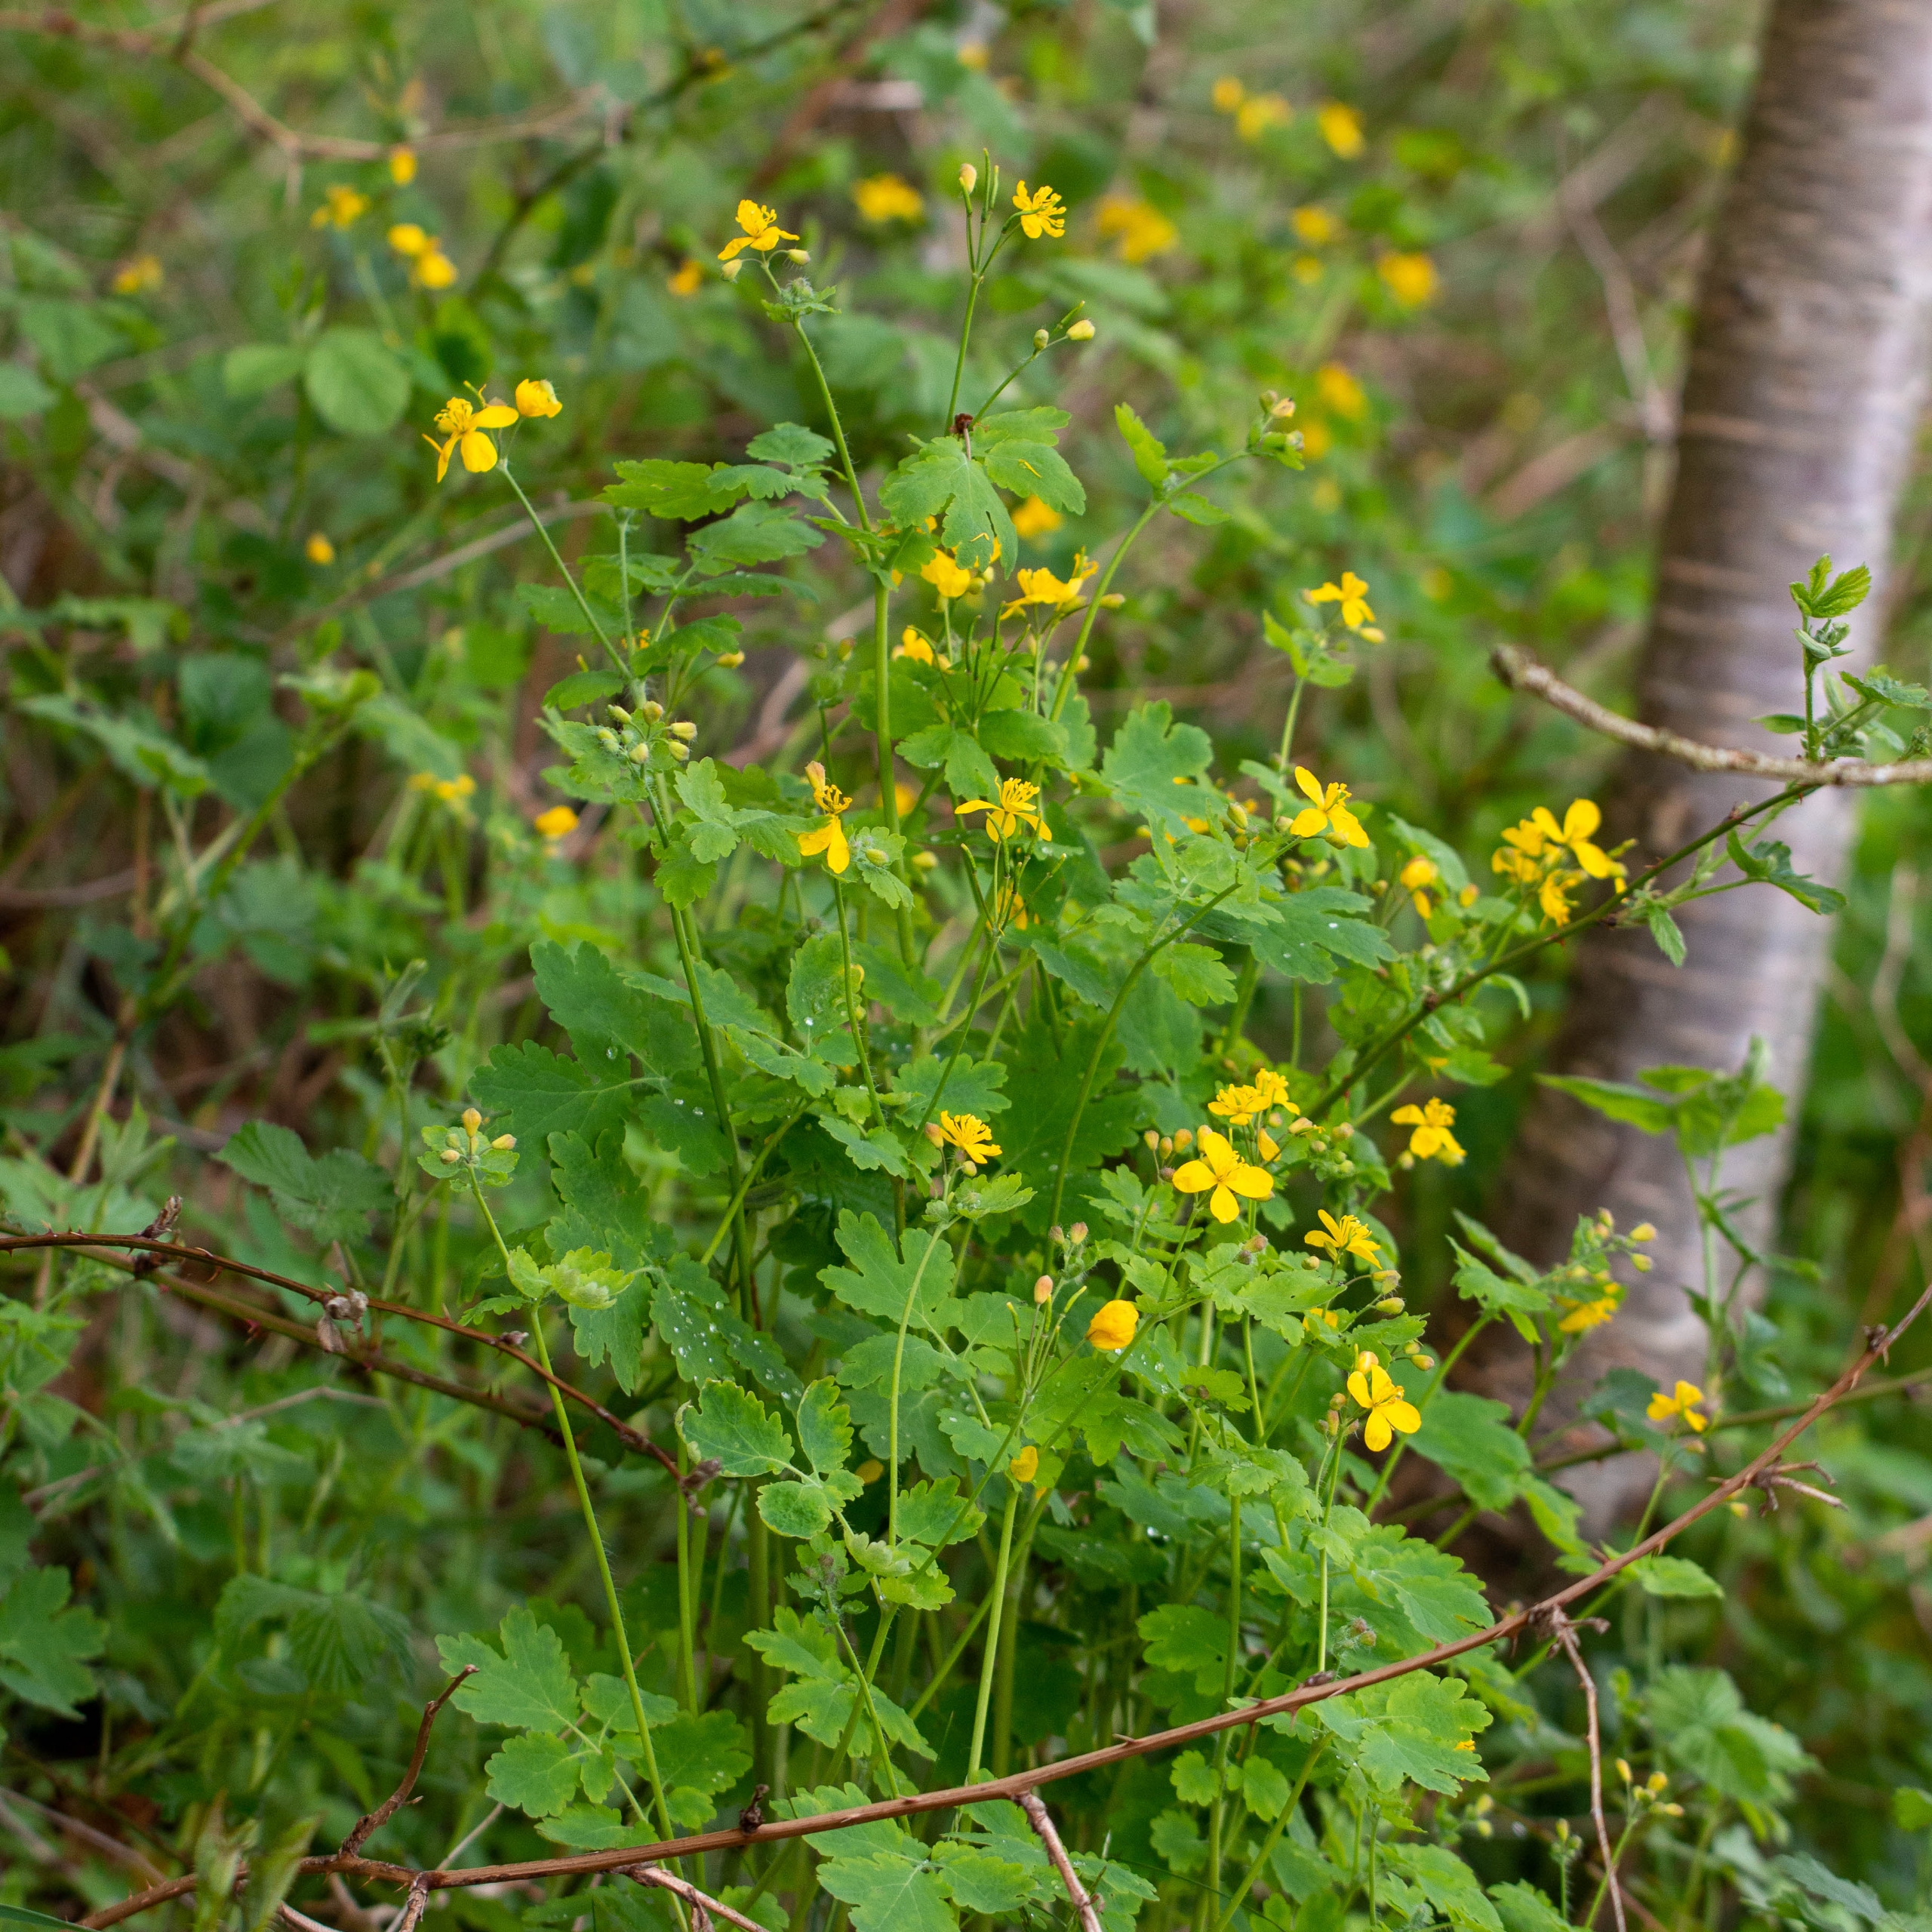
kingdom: Plantae
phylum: Tracheophyta
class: Magnoliopsida
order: Ranunculales
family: Papaveraceae
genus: Chelidonium
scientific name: Chelidonium majus
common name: Svaleurt
